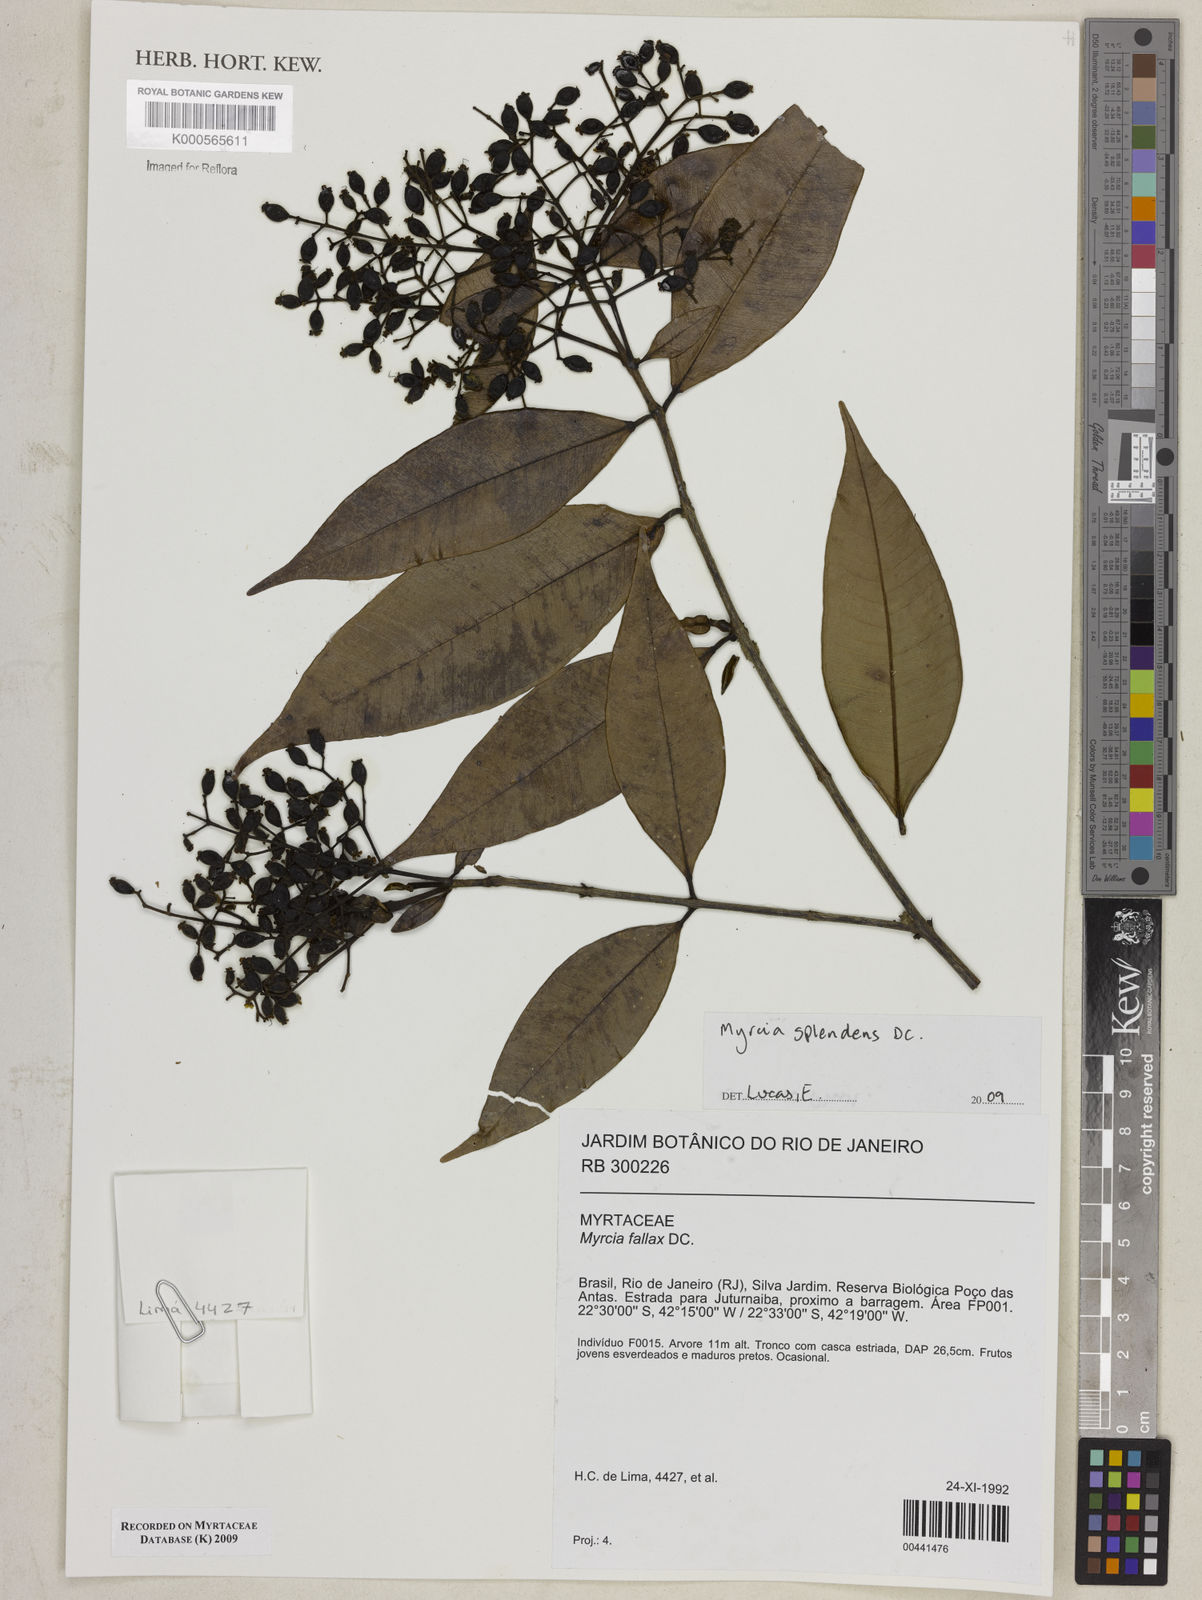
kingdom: Plantae
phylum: Tracheophyta
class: Magnoliopsida
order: Myrtales
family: Myrtaceae
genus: Myrcia
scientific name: Myrcia splendens
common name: Surinam cherry
